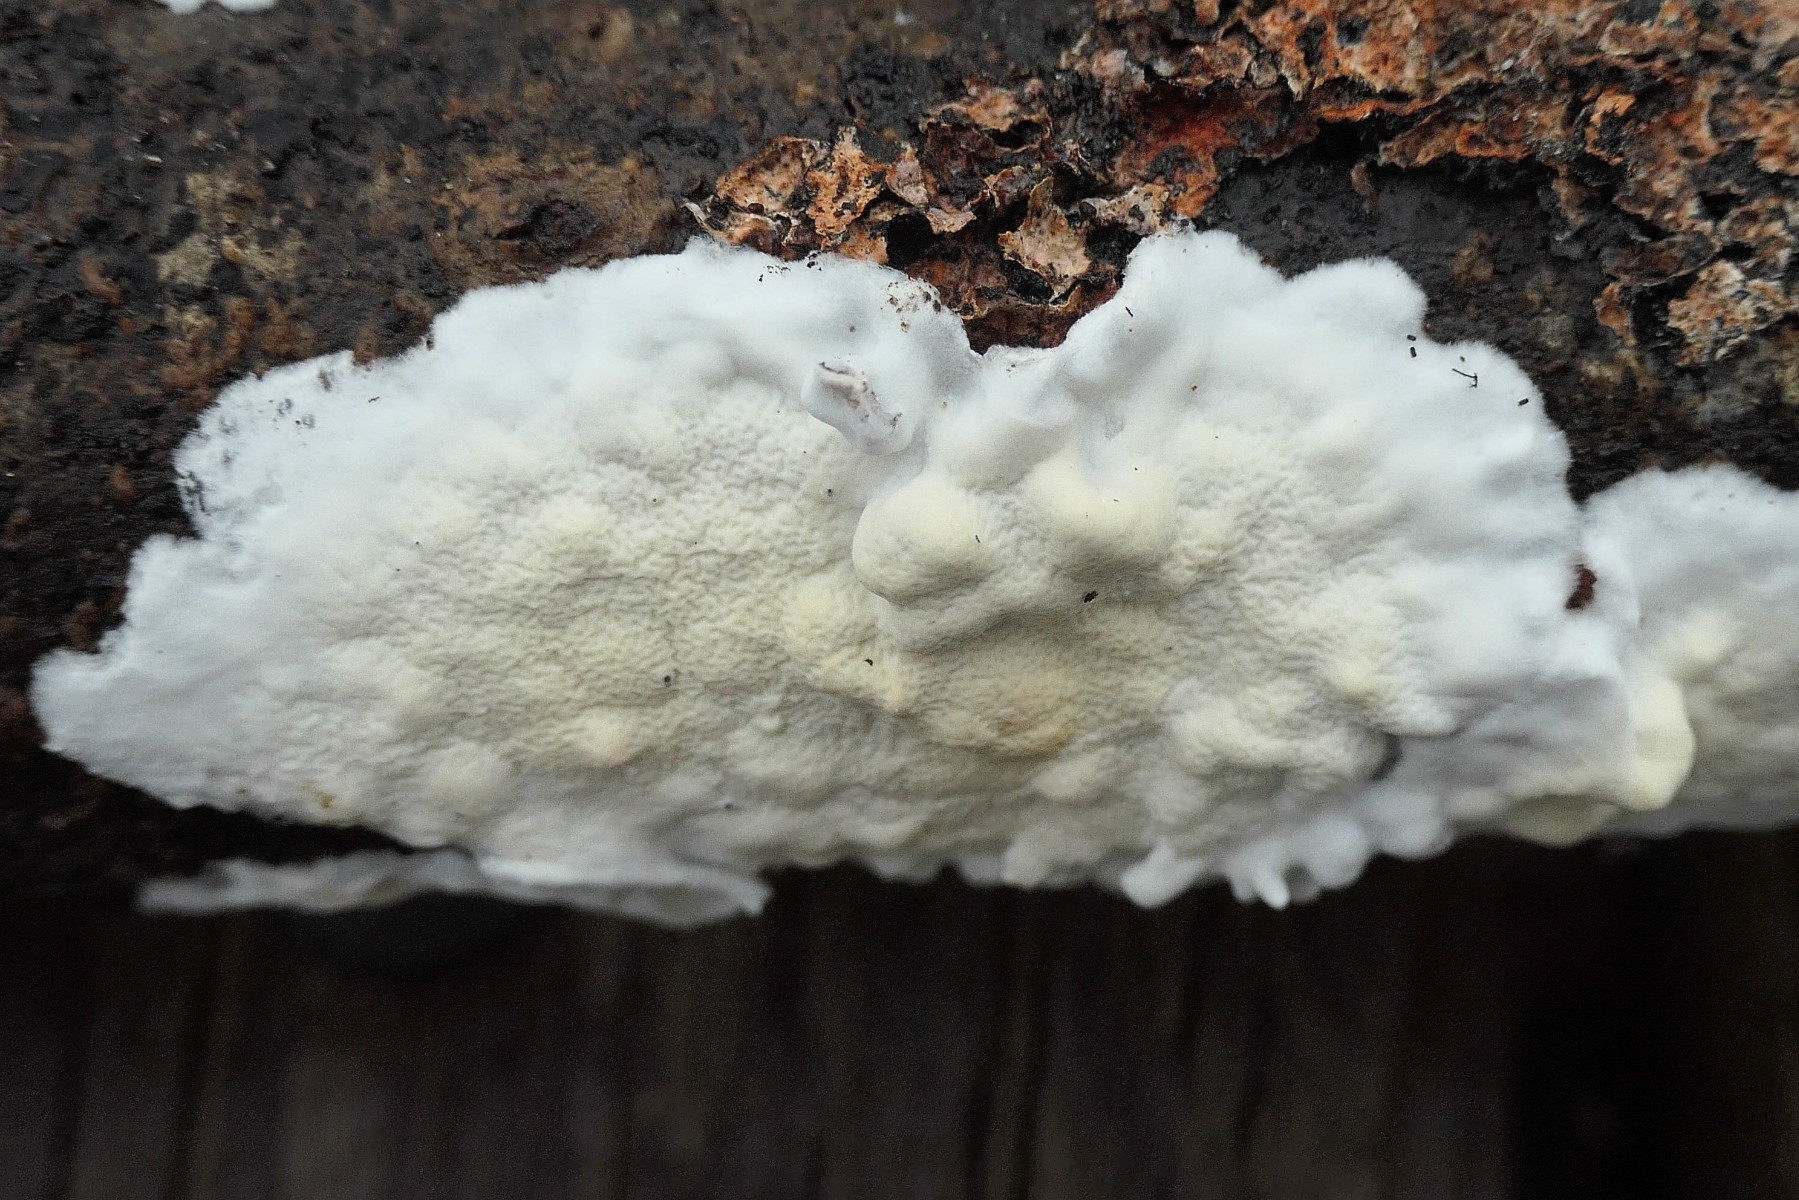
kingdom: Fungi
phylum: Basidiomycota
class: Agaricomycetes
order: Polyporales
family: Irpicaceae
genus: Byssomerulius
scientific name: Byssomerulius corium
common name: læder-åresvamp
